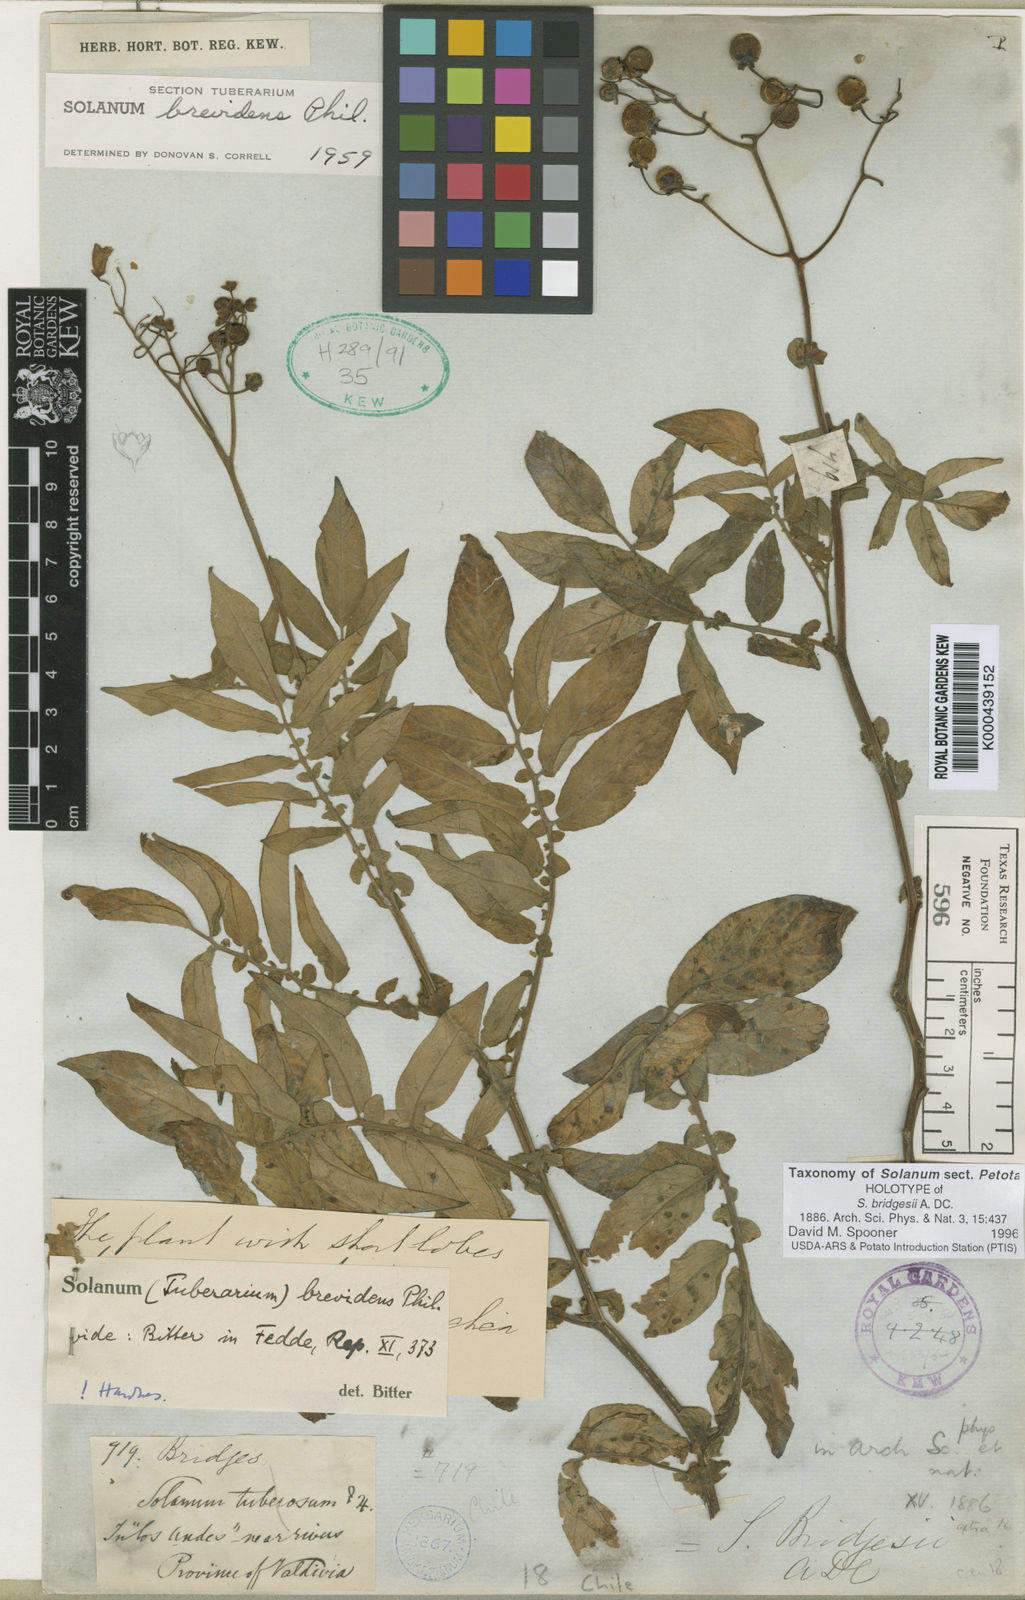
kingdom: Plantae
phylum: Tracheophyta
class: Magnoliopsida
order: Solanales
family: Solanaceae
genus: Solanum
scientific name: Solanum palustre
